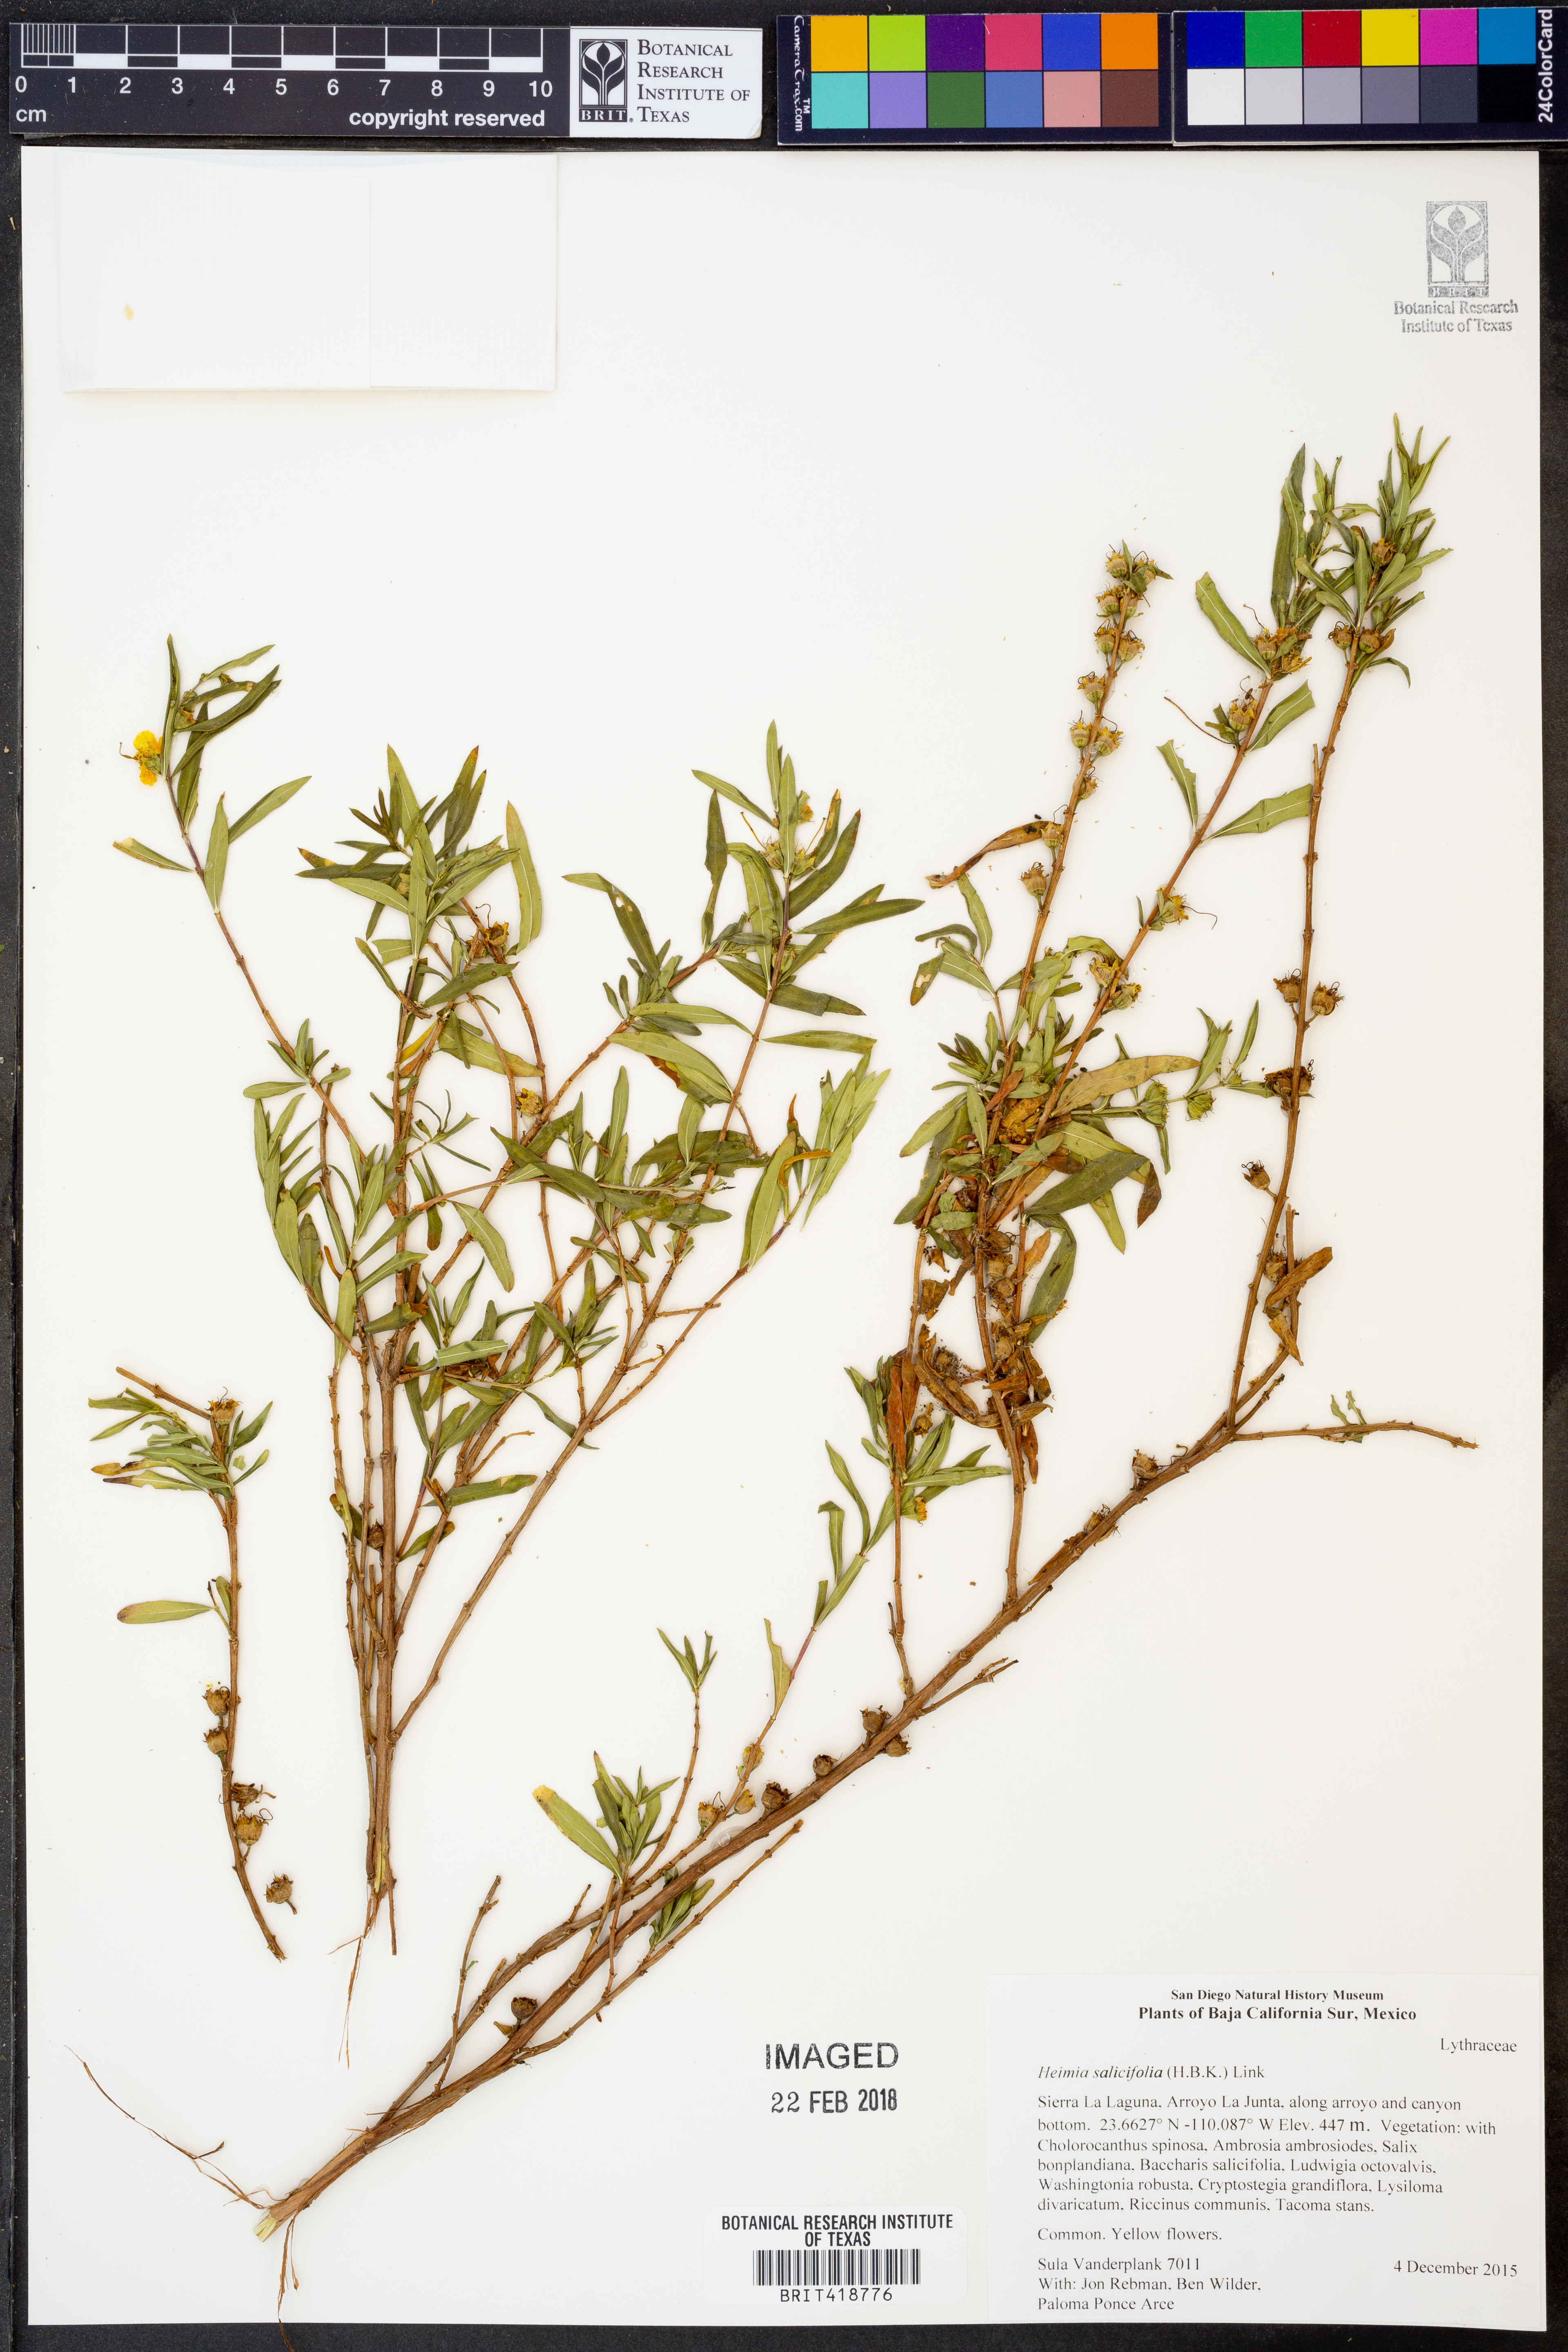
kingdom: Plantae
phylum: Tracheophyta
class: Magnoliopsida
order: Myrtales
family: Lythraceae
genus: Heimia
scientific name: Heimia salicifolia
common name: Willow-leaf heimia
